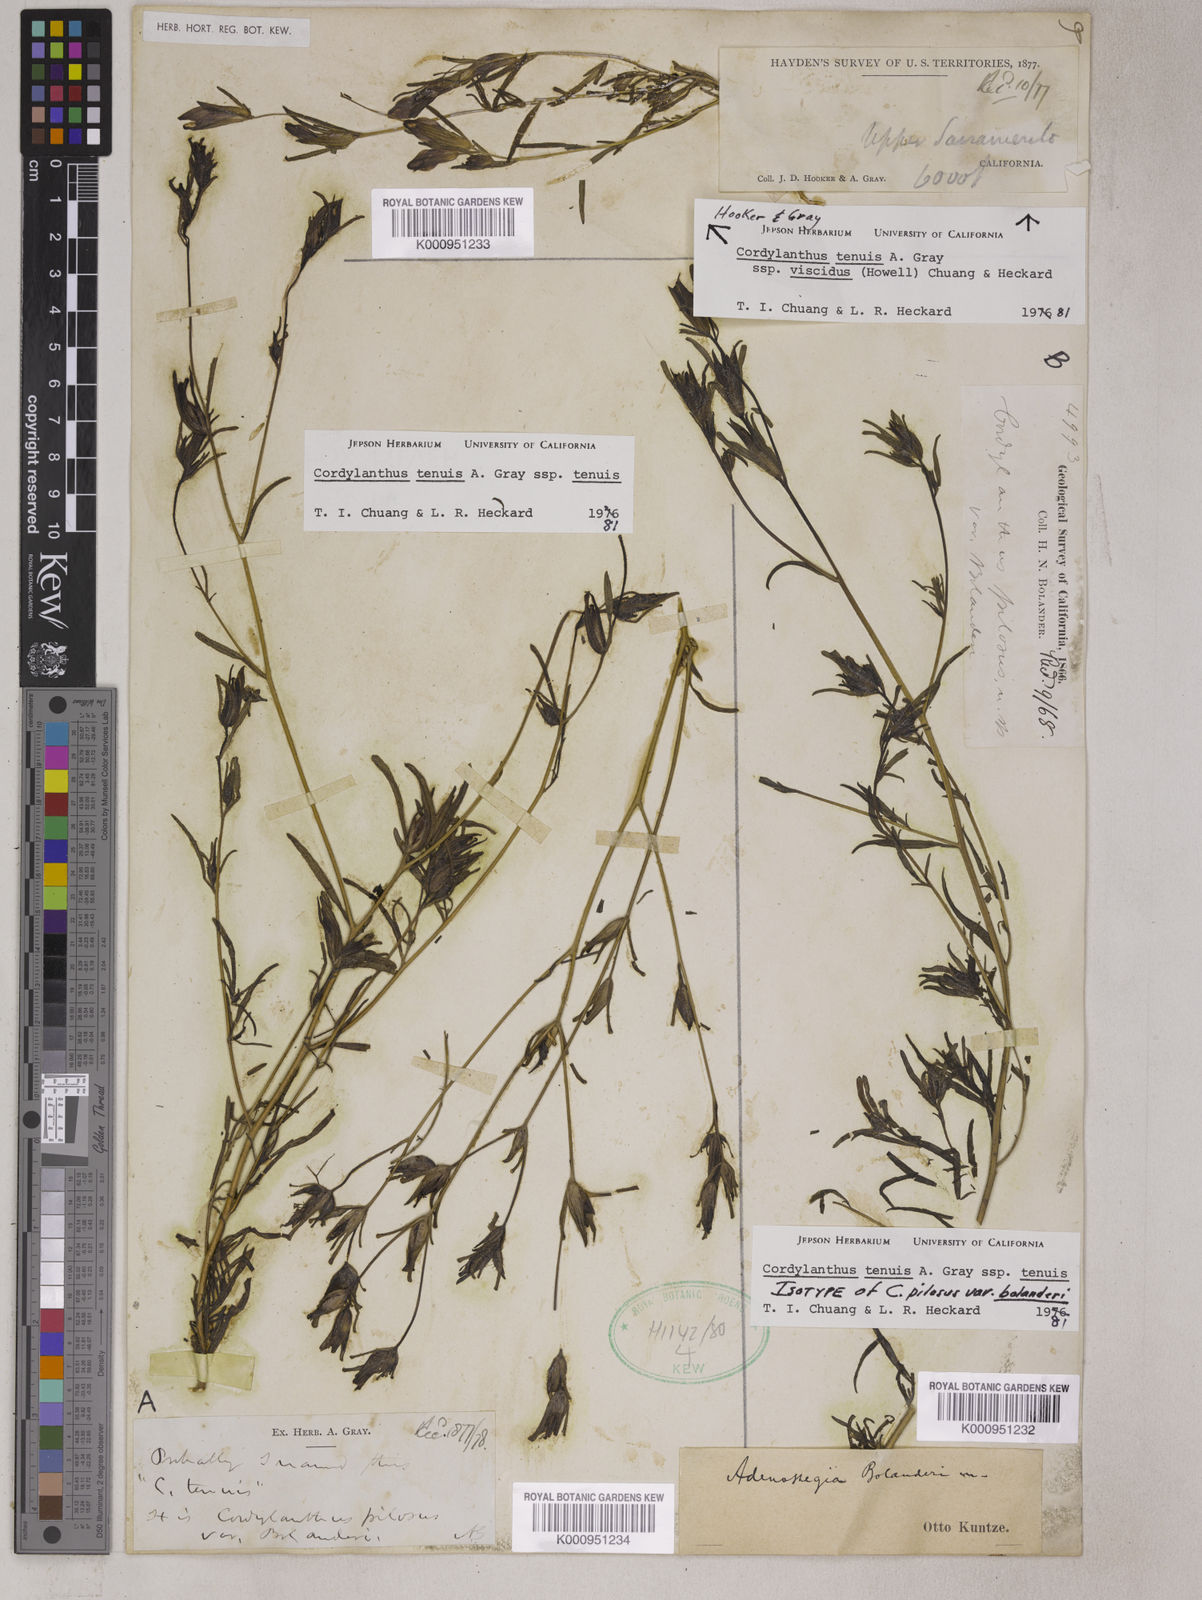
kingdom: Plantae
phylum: Tracheophyta
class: Magnoliopsida
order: Lamiales
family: Orobanchaceae
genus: Cordylanthus
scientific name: Cordylanthus tenuis
